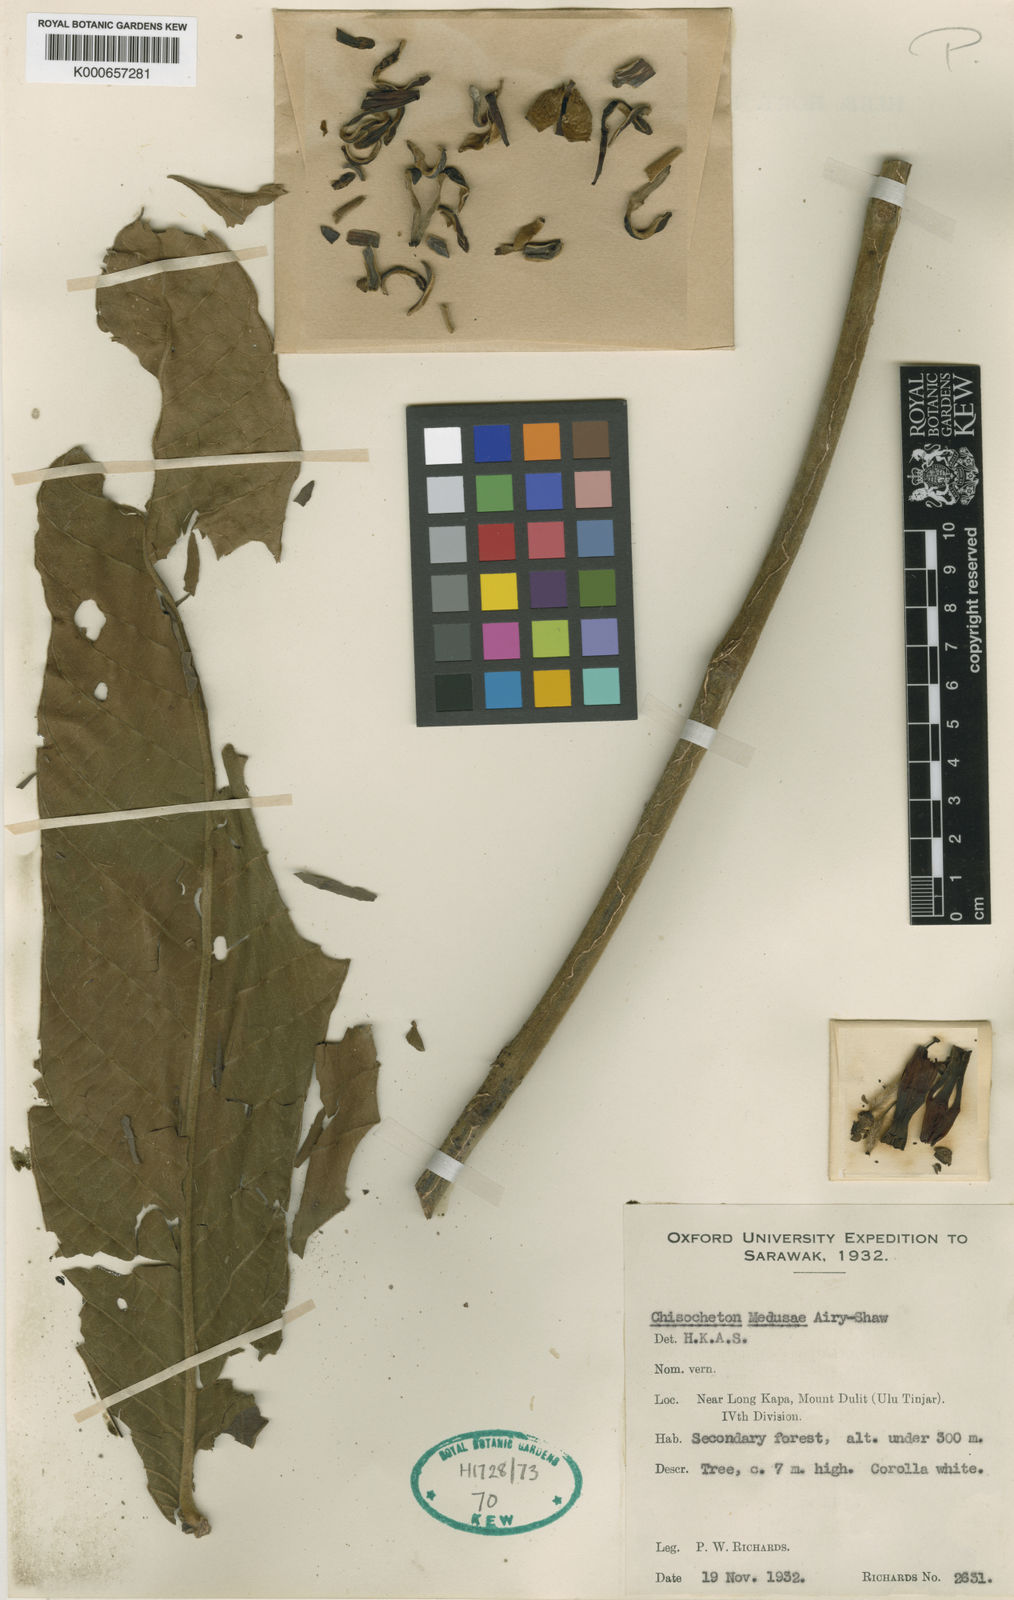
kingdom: Plantae
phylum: Tracheophyta
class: Magnoliopsida
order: Sapindales
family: Meliaceae
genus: Chisocheton
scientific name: Chisocheton medusae
